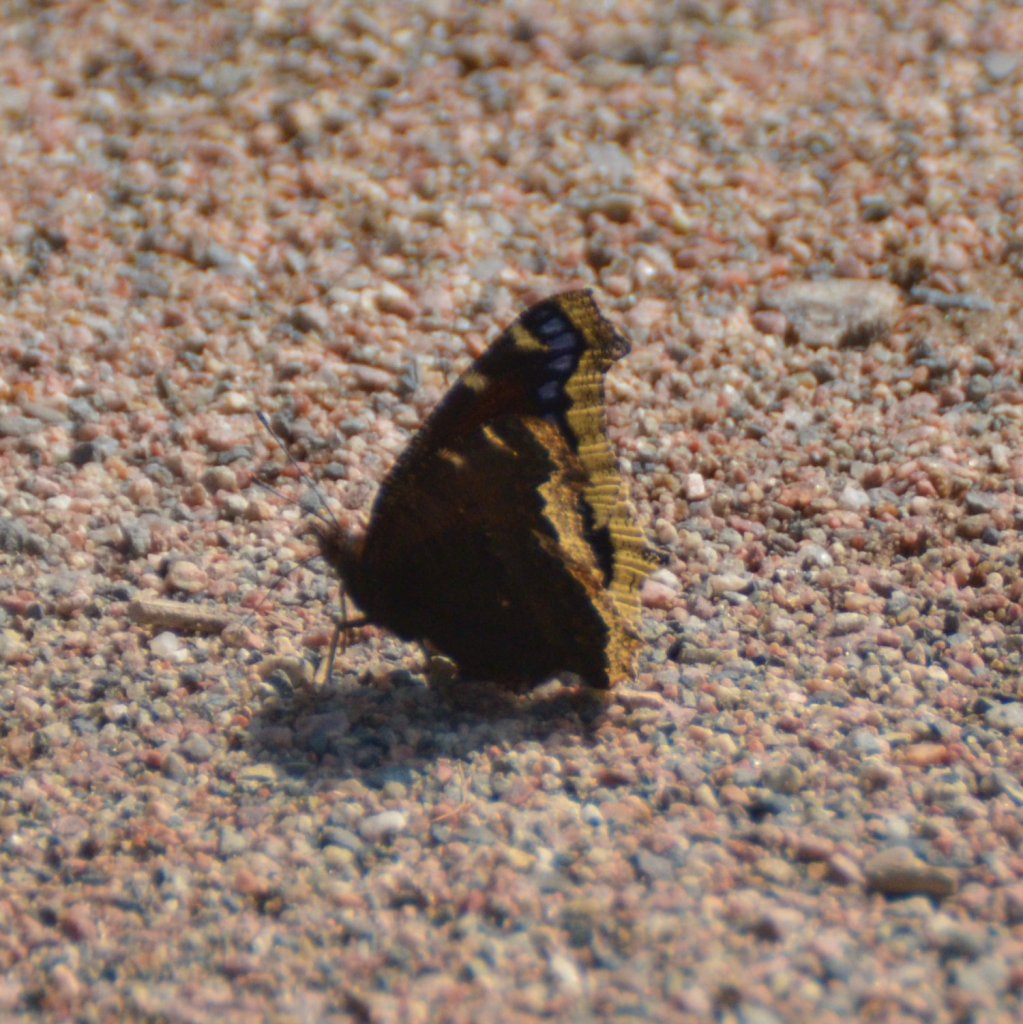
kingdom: Animalia
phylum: Arthropoda
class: Insecta
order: Lepidoptera
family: Nymphalidae
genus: Nymphalis
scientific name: Nymphalis antiopa
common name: Mourning Cloak
